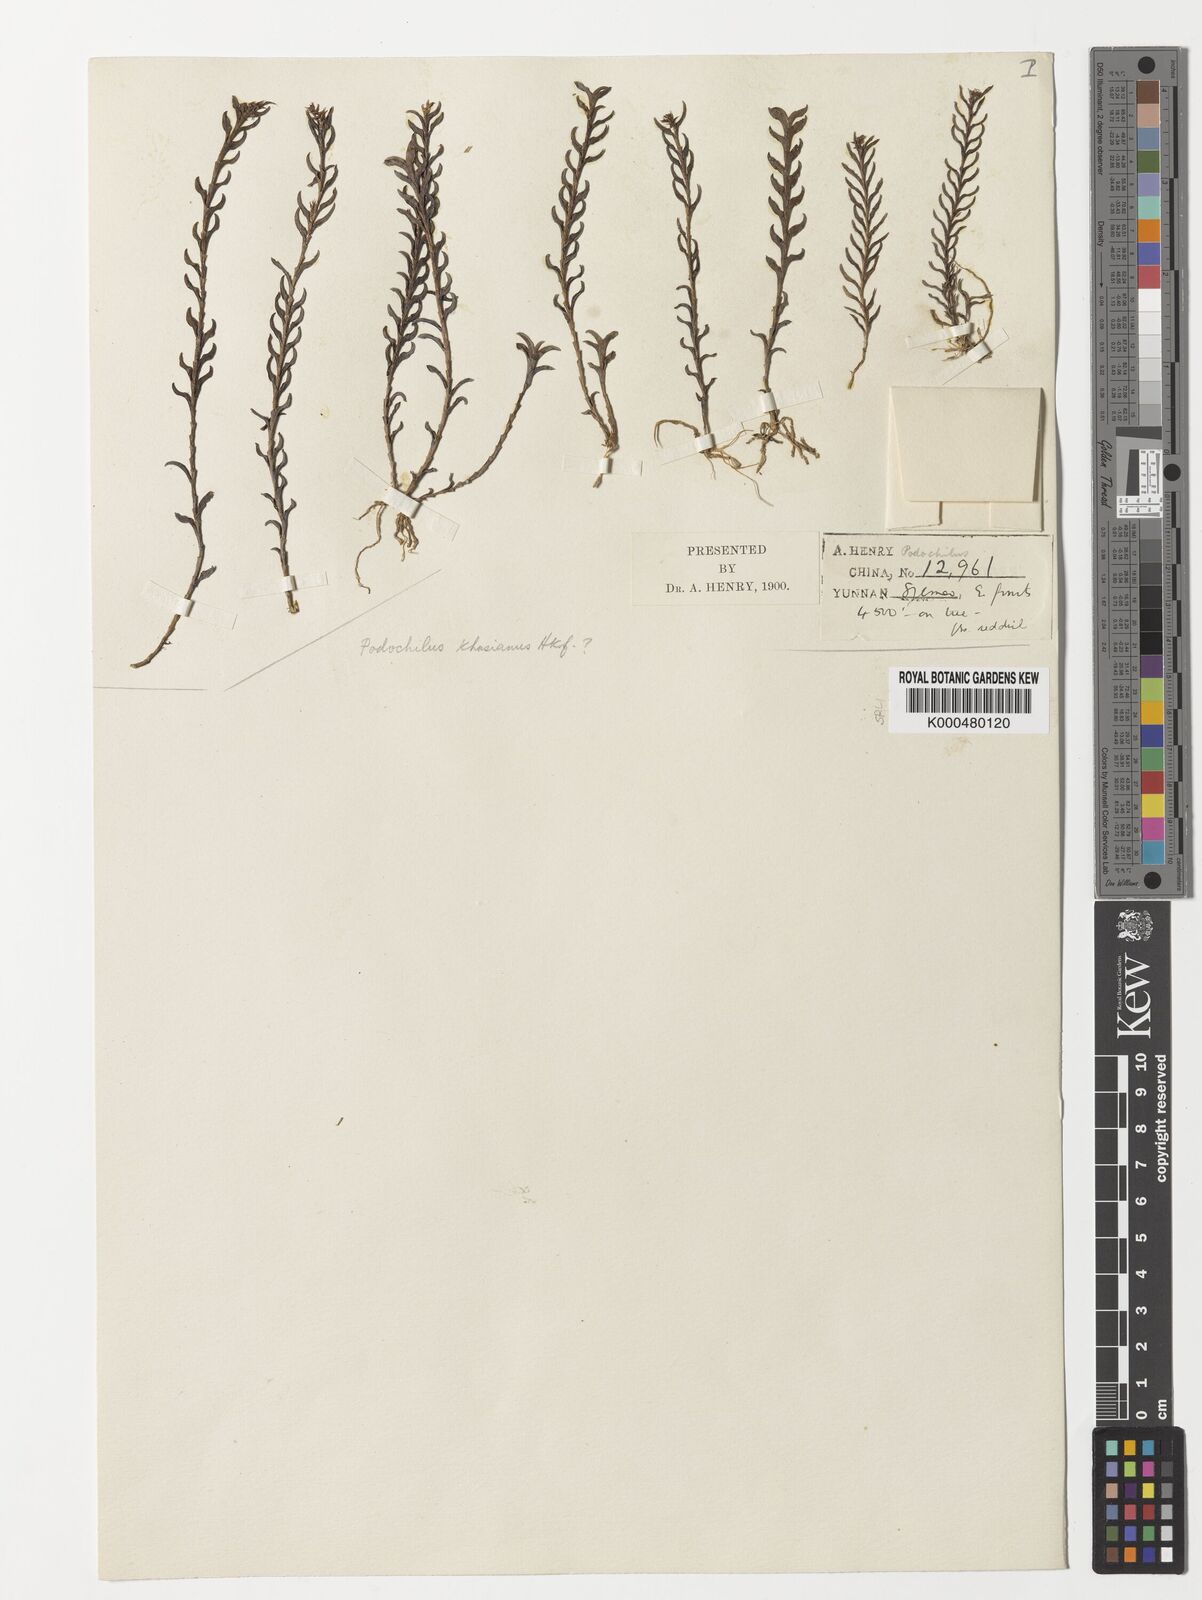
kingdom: Plantae
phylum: Tracheophyta
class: Liliopsida
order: Asparagales
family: Orchidaceae
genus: Podochilus
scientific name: Podochilus khasianus
